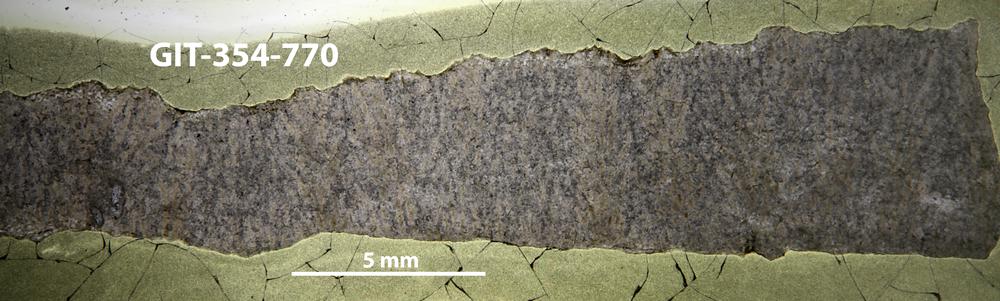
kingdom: Animalia
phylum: Porifera
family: Pseudolabechiidae
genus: Pseudolabechia
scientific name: Pseudolabechia
